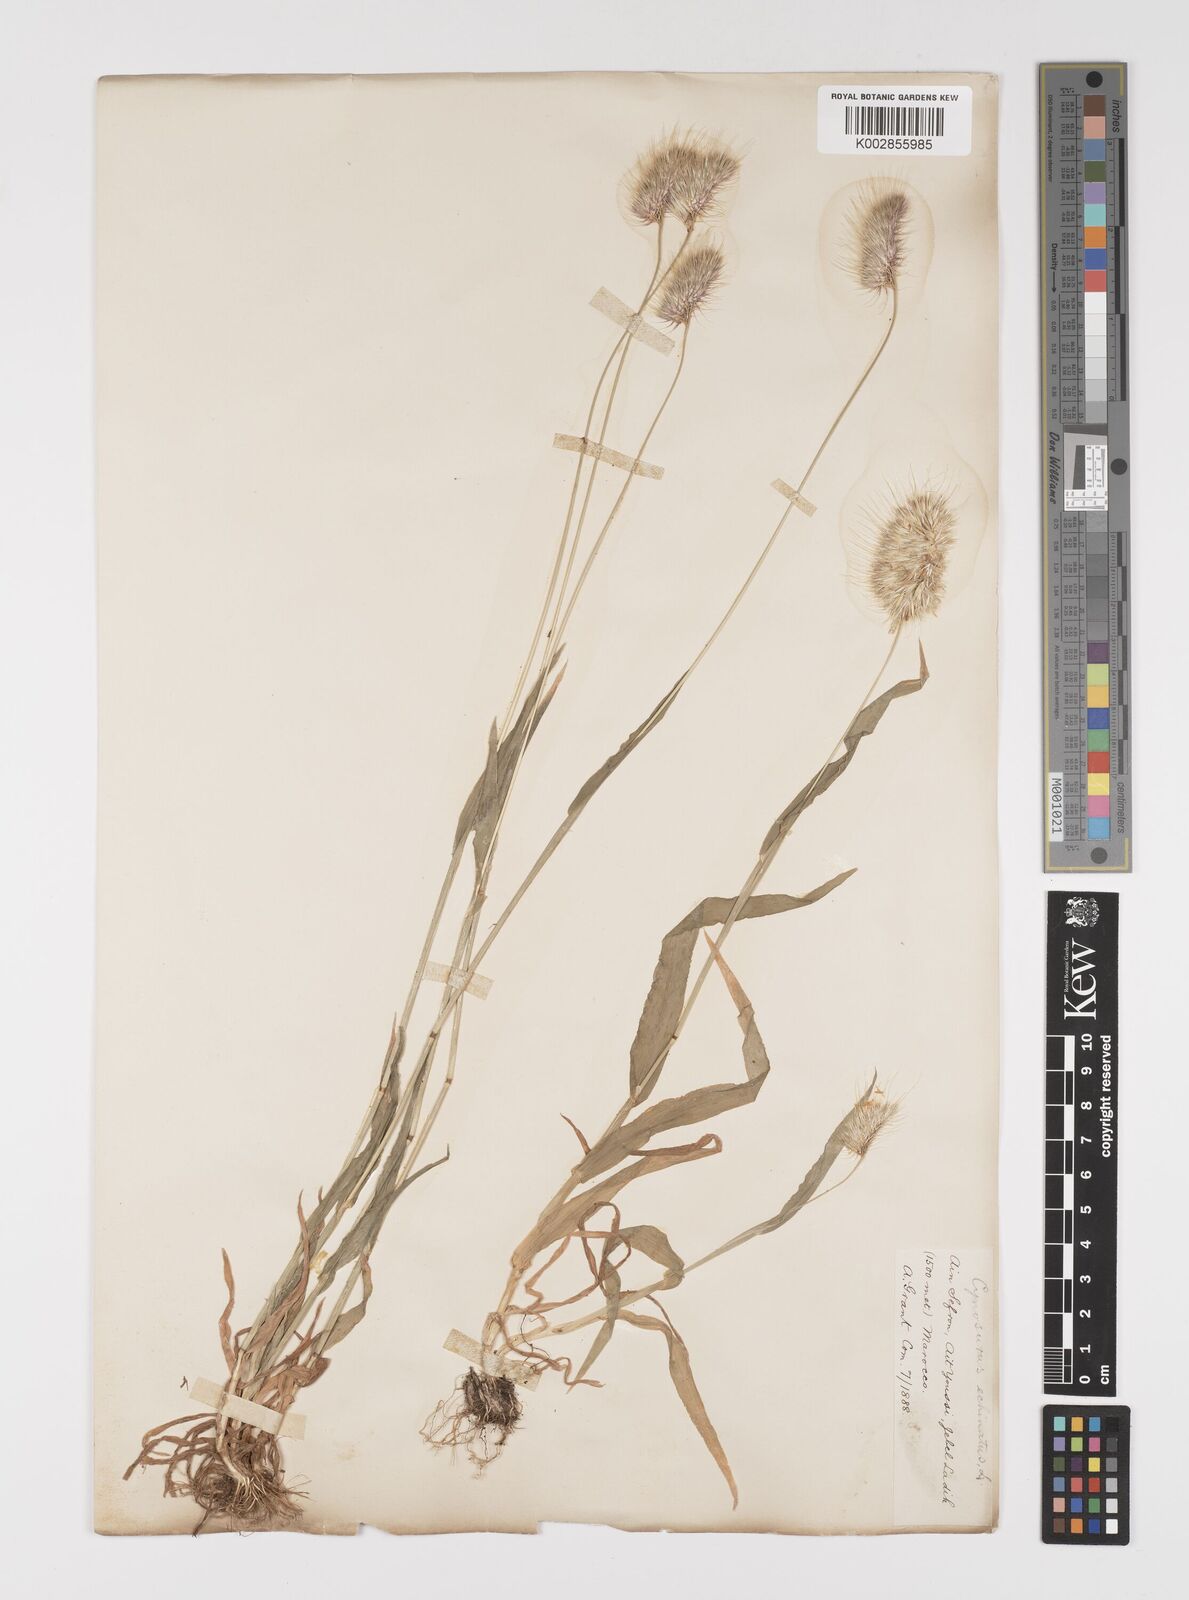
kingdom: Plantae
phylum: Tracheophyta
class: Liliopsida
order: Poales
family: Poaceae
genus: Cynosurus
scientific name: Cynosurus echinatus
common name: Rough dog's-tail
